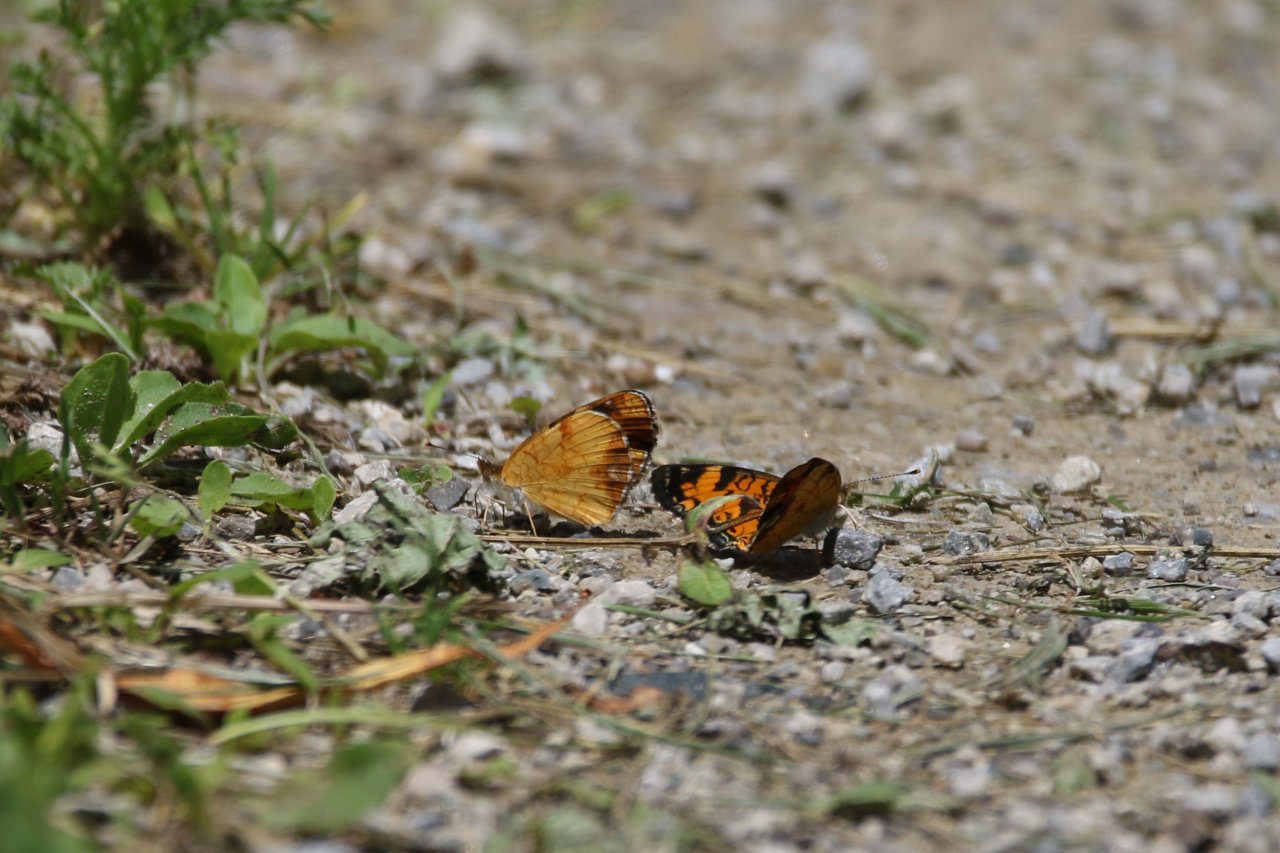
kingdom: Animalia
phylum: Arthropoda
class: Insecta
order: Lepidoptera
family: Nymphalidae
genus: Phyciodes
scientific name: Phyciodes
